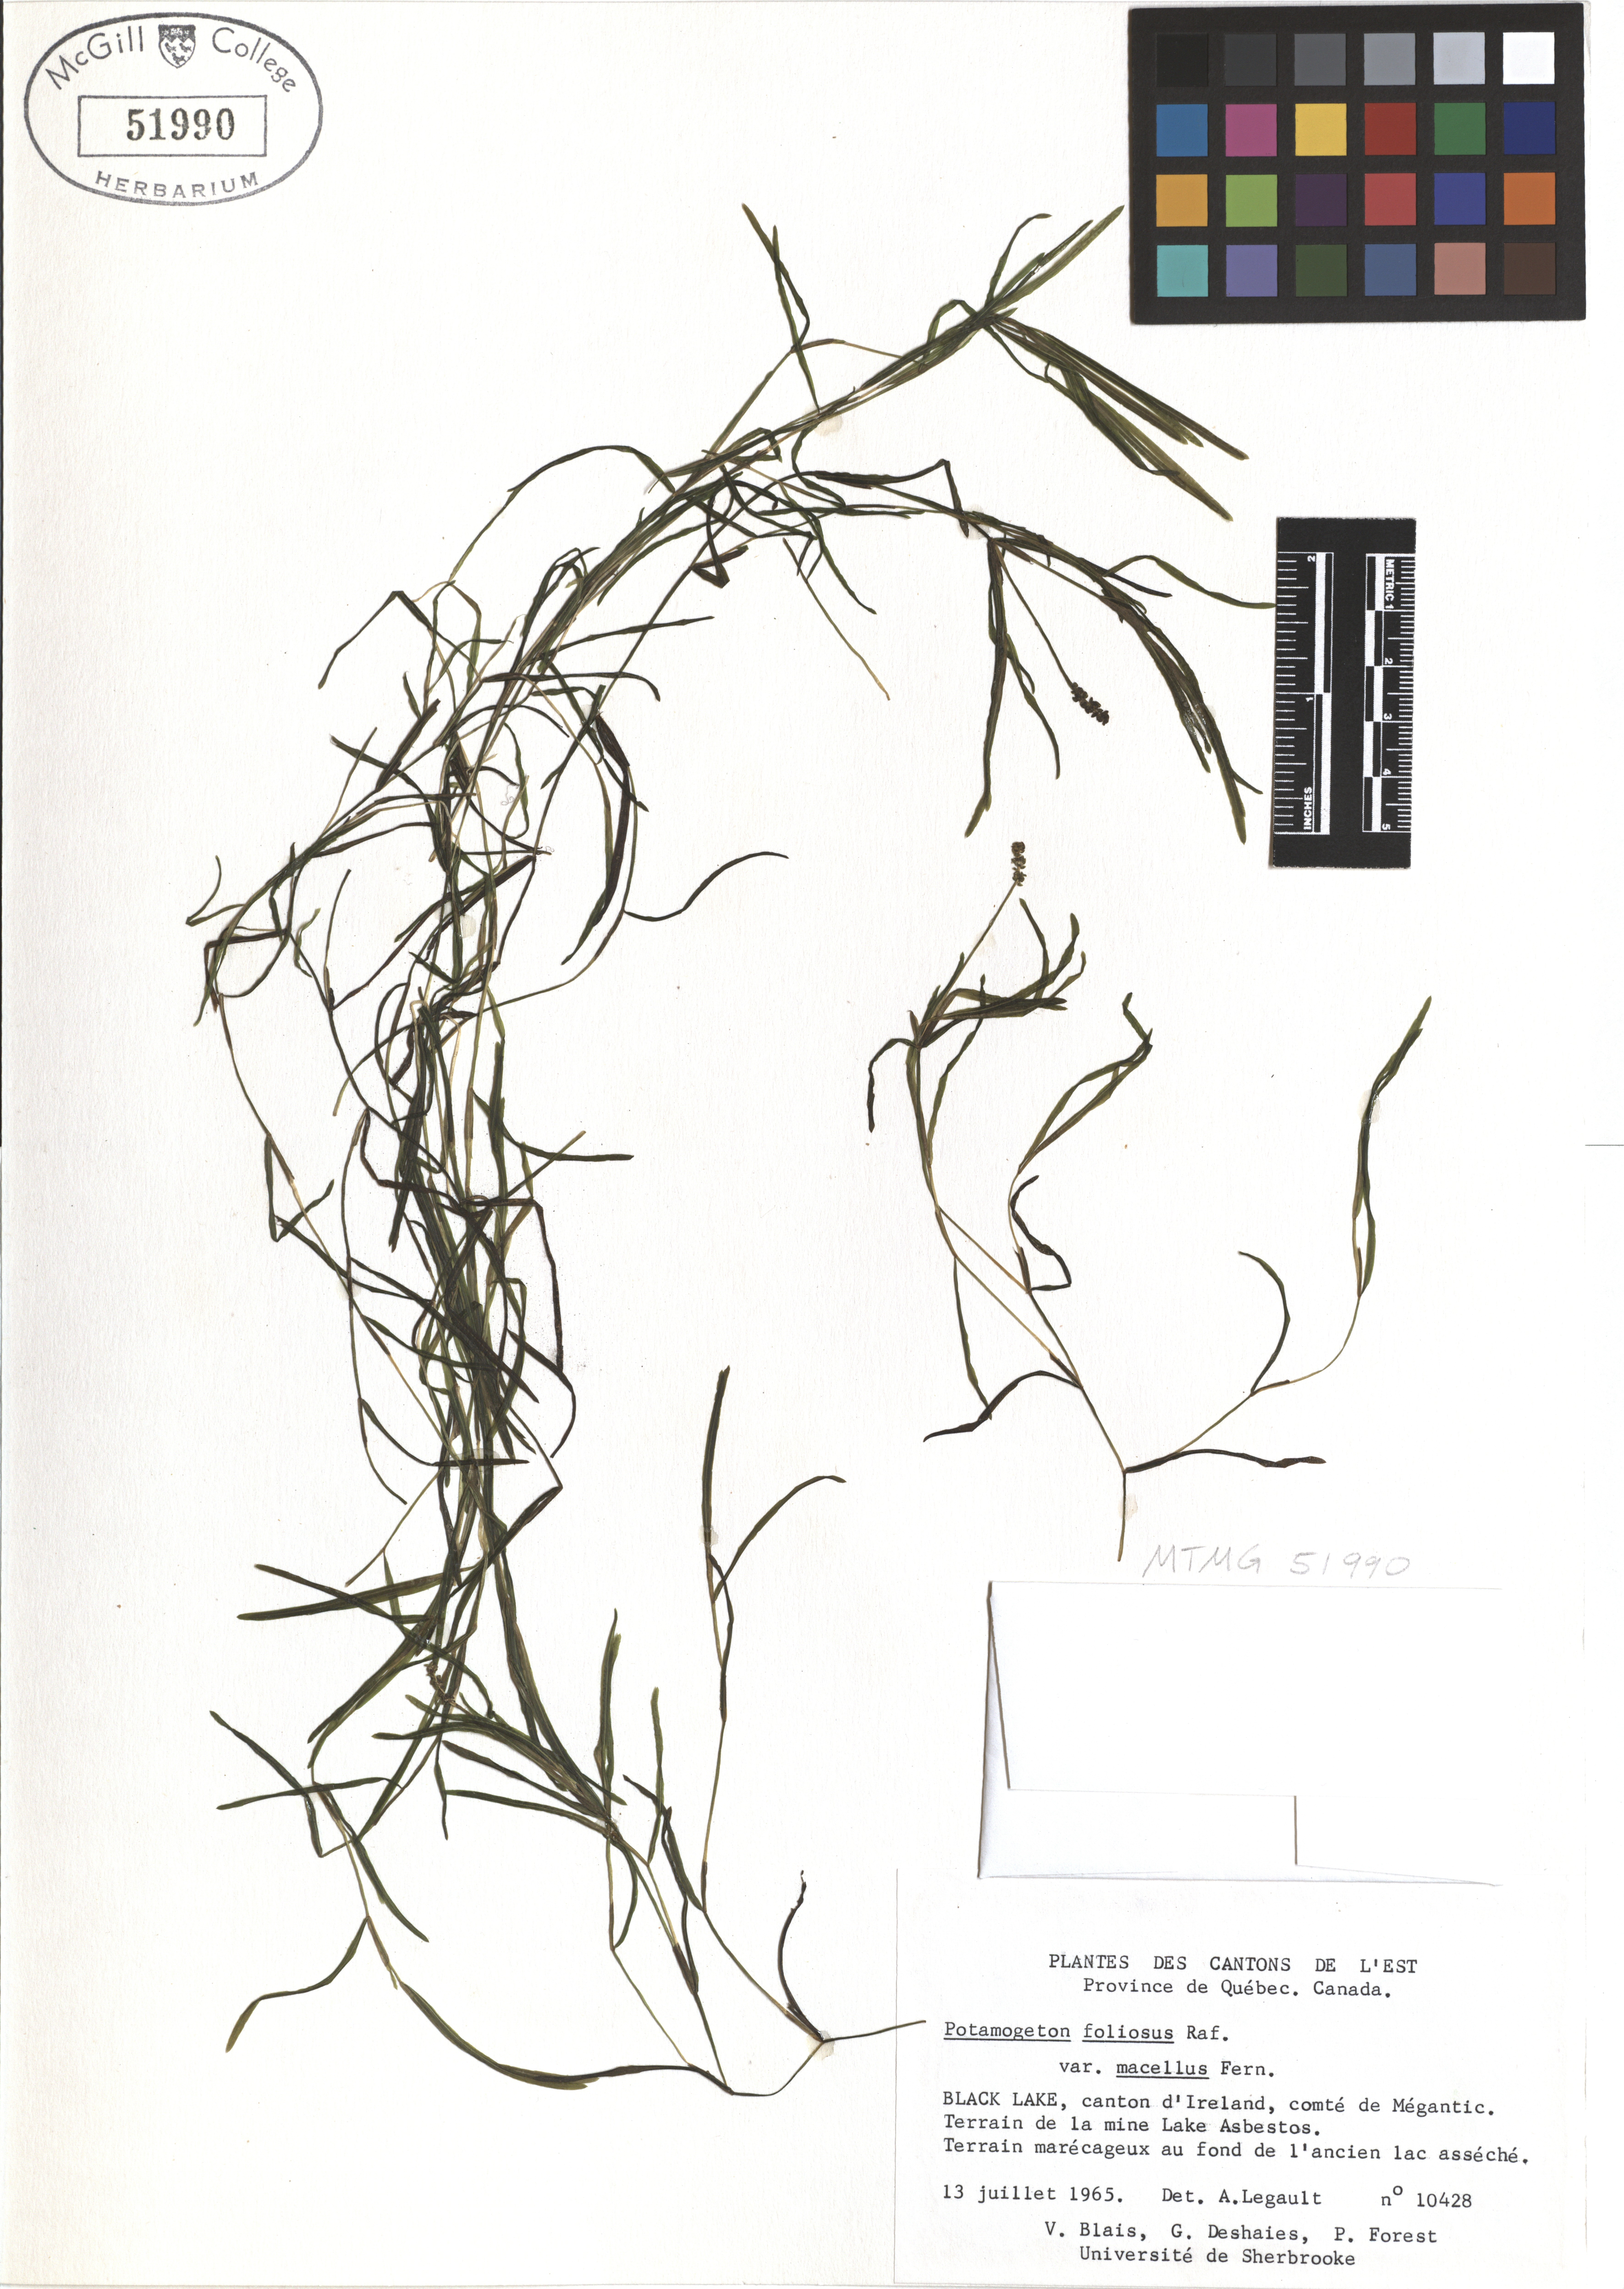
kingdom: Plantae
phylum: Tracheophyta
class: Liliopsida
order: Alismatales
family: Potamogetonaceae
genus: Potamogeton
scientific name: Potamogeton foliosus
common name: Leafy pondweed
